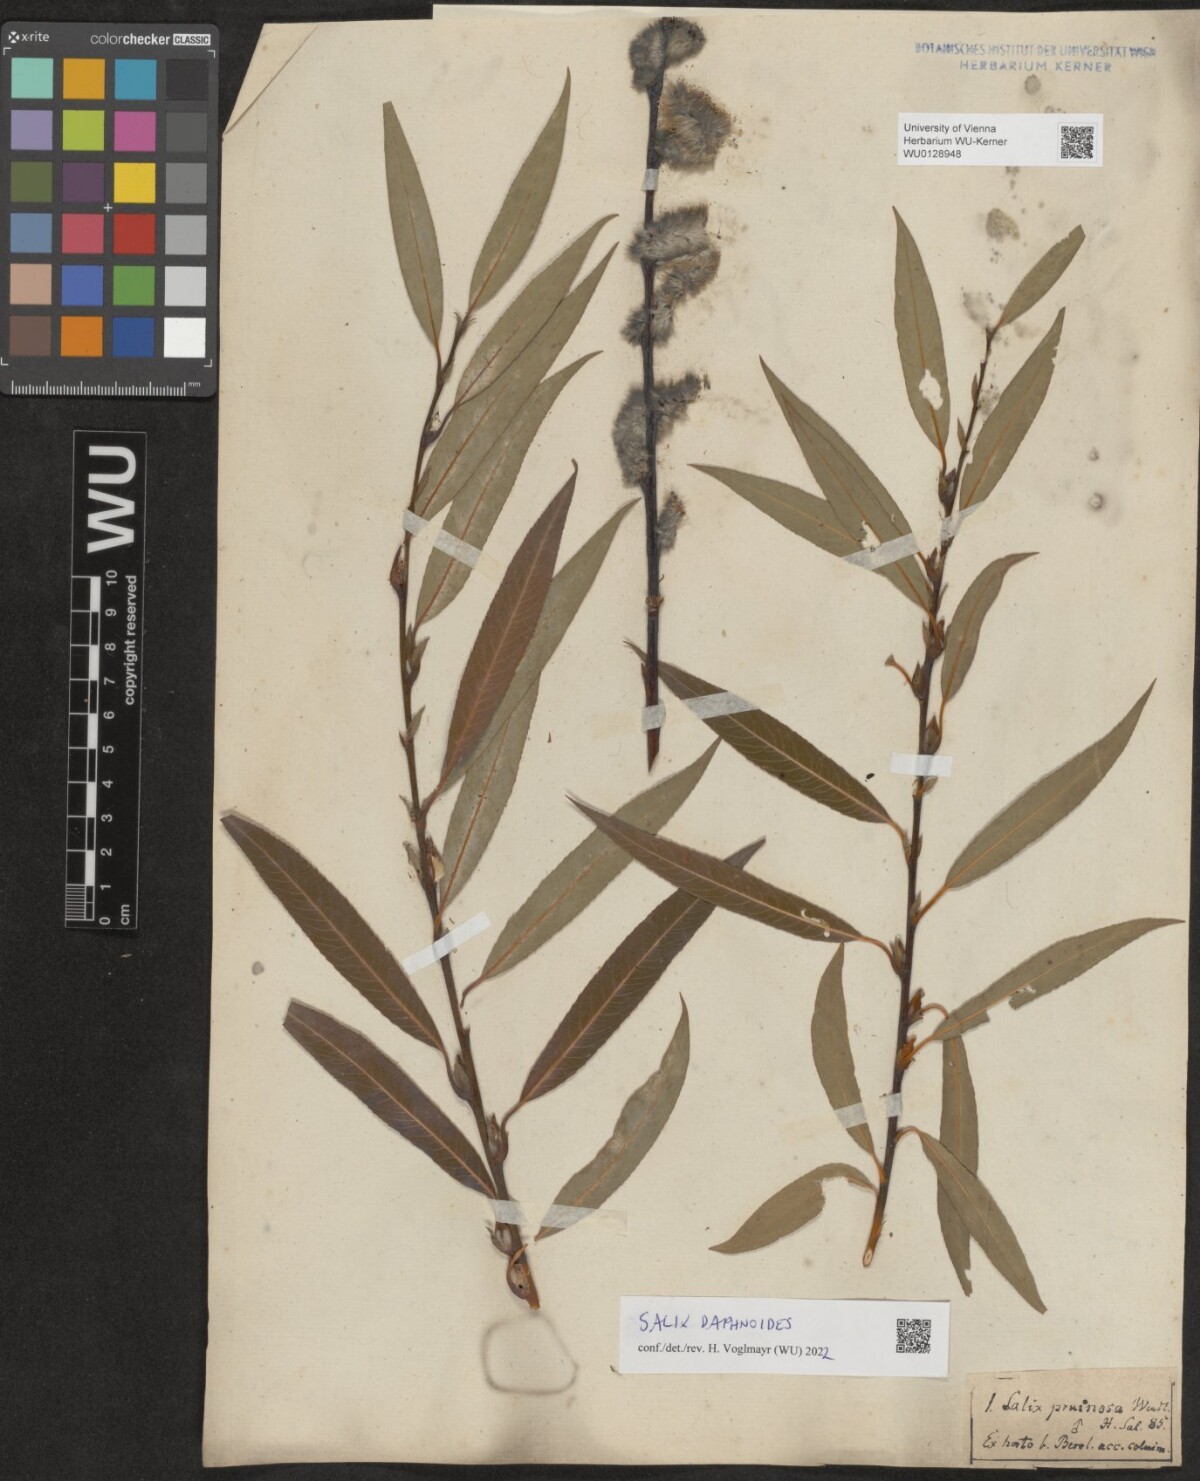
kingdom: Plantae
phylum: Tracheophyta
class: Magnoliopsida
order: Malpighiales
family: Salicaceae
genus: Salix
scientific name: Salix daphnoides
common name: European violet-willow
